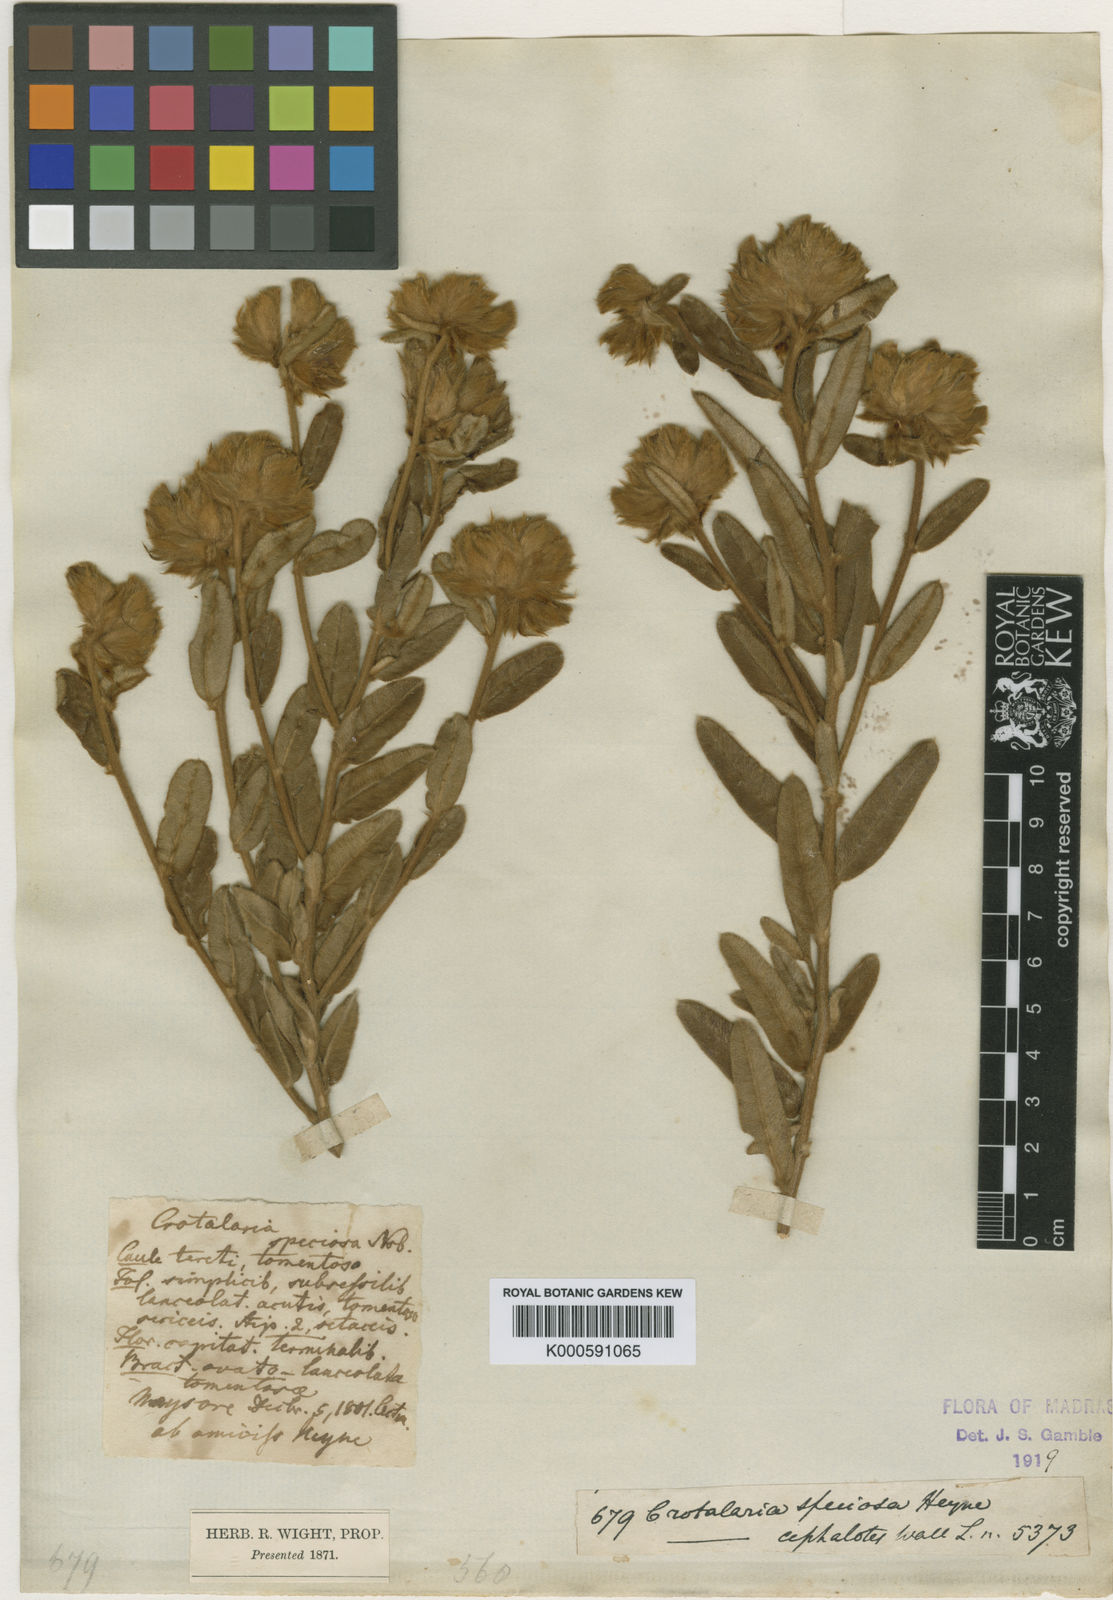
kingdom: Plantae
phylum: Tracheophyta
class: Magnoliopsida
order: Fabales
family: Fabaceae
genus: Crotalaria
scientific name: Crotalaria speciosa
